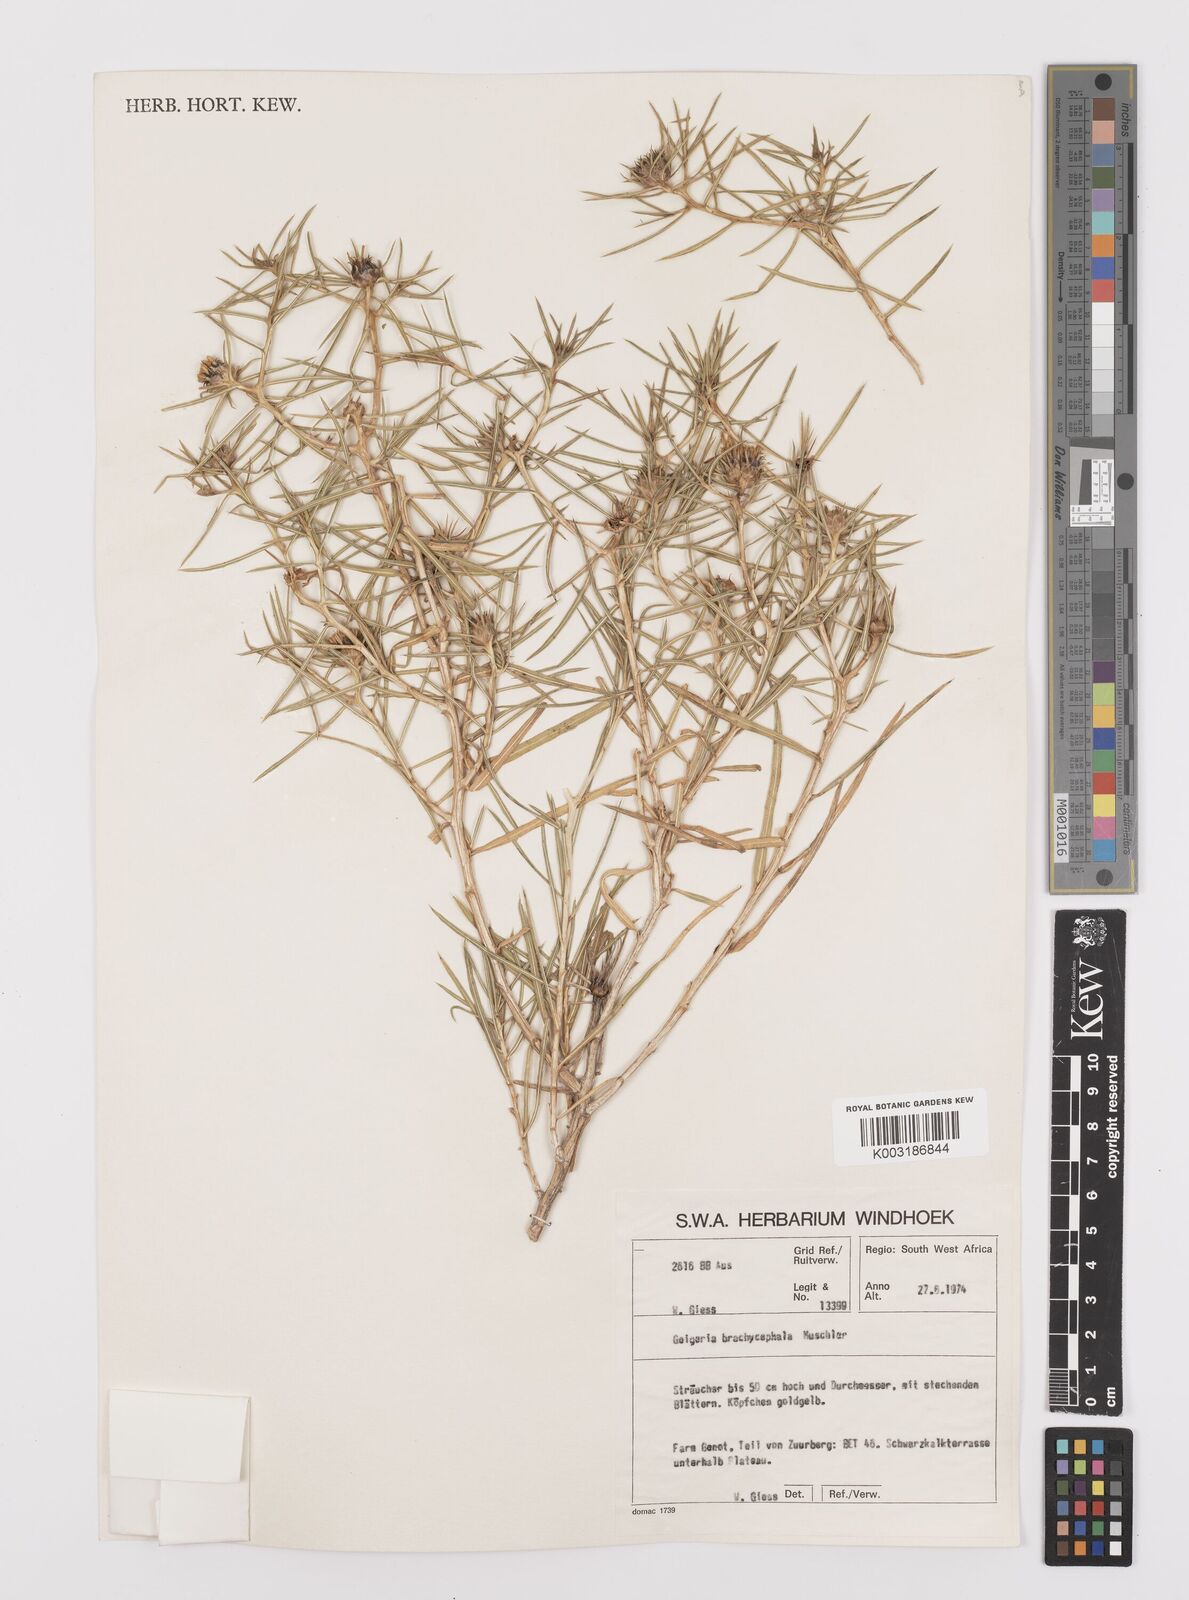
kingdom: Plantae
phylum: Tracheophyta
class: Magnoliopsida
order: Asterales
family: Asteraceae
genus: Geigeria
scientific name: Geigeria plumosa
